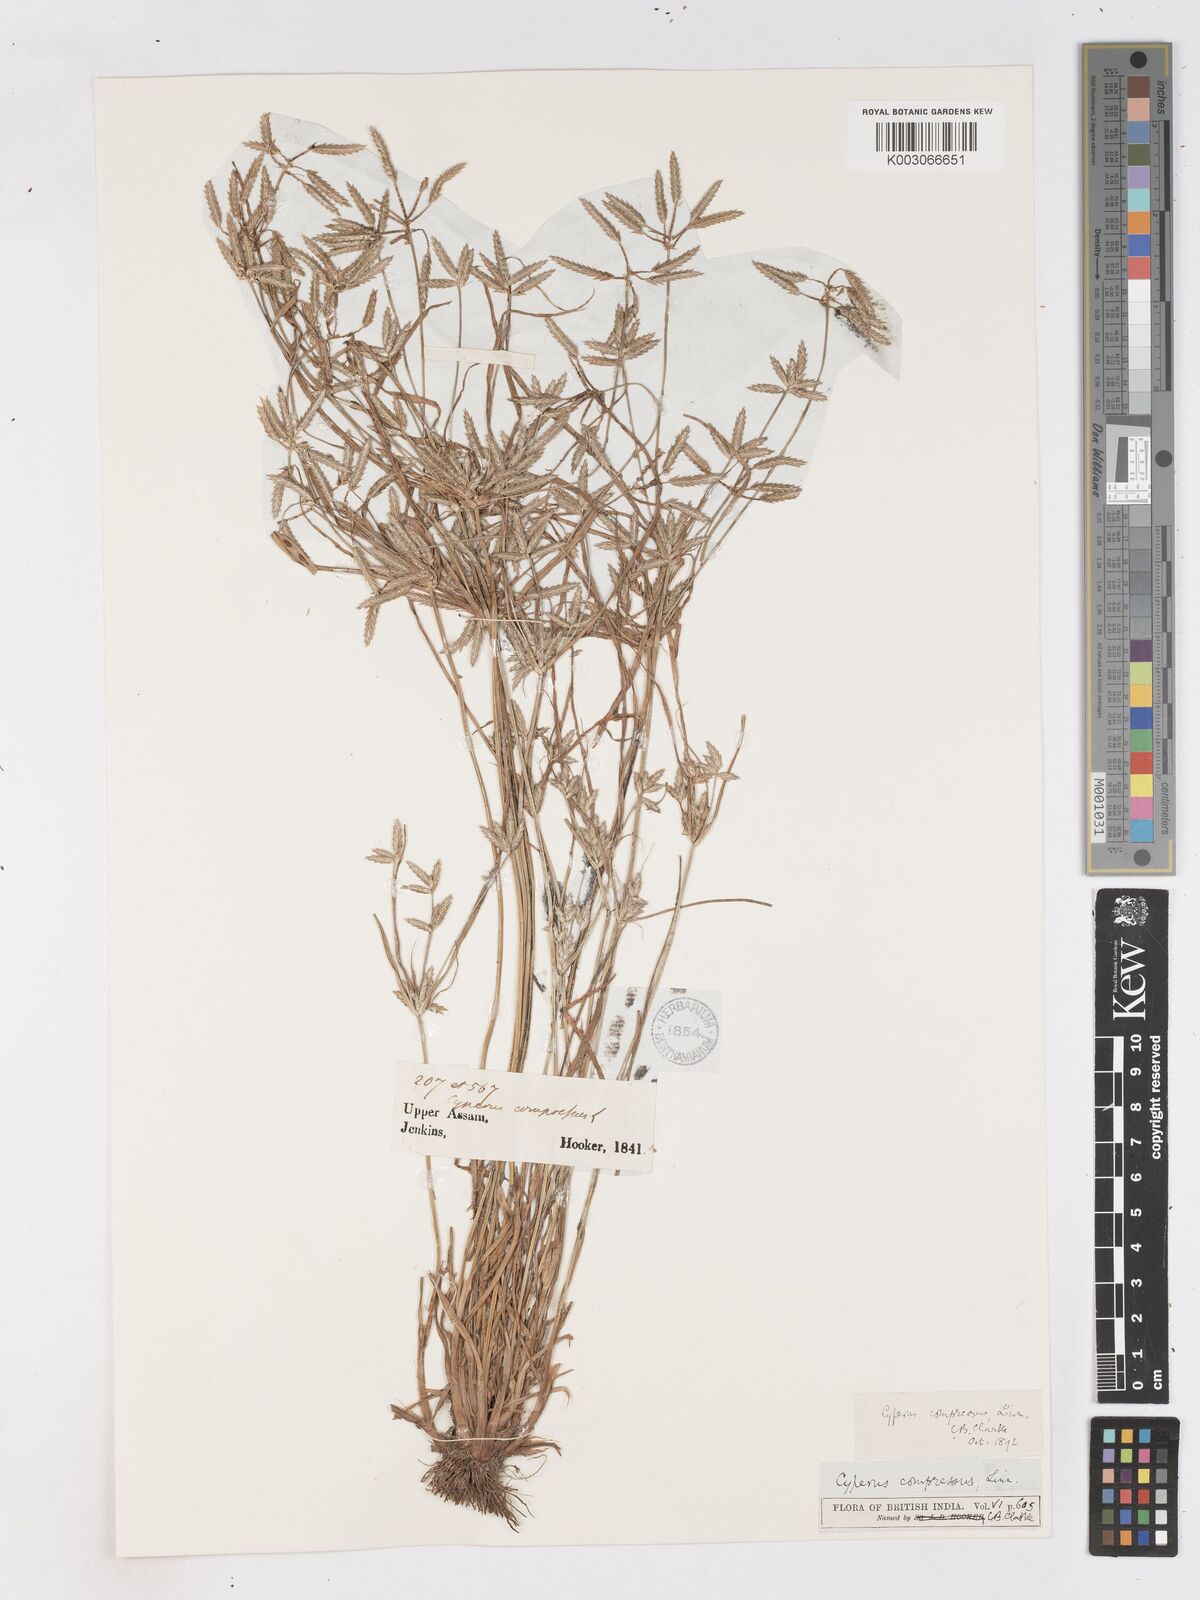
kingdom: Plantae
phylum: Tracheophyta
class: Liliopsida
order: Poales
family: Cyperaceae
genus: Cyperus
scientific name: Cyperus compressus
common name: Poorland flatsedge
